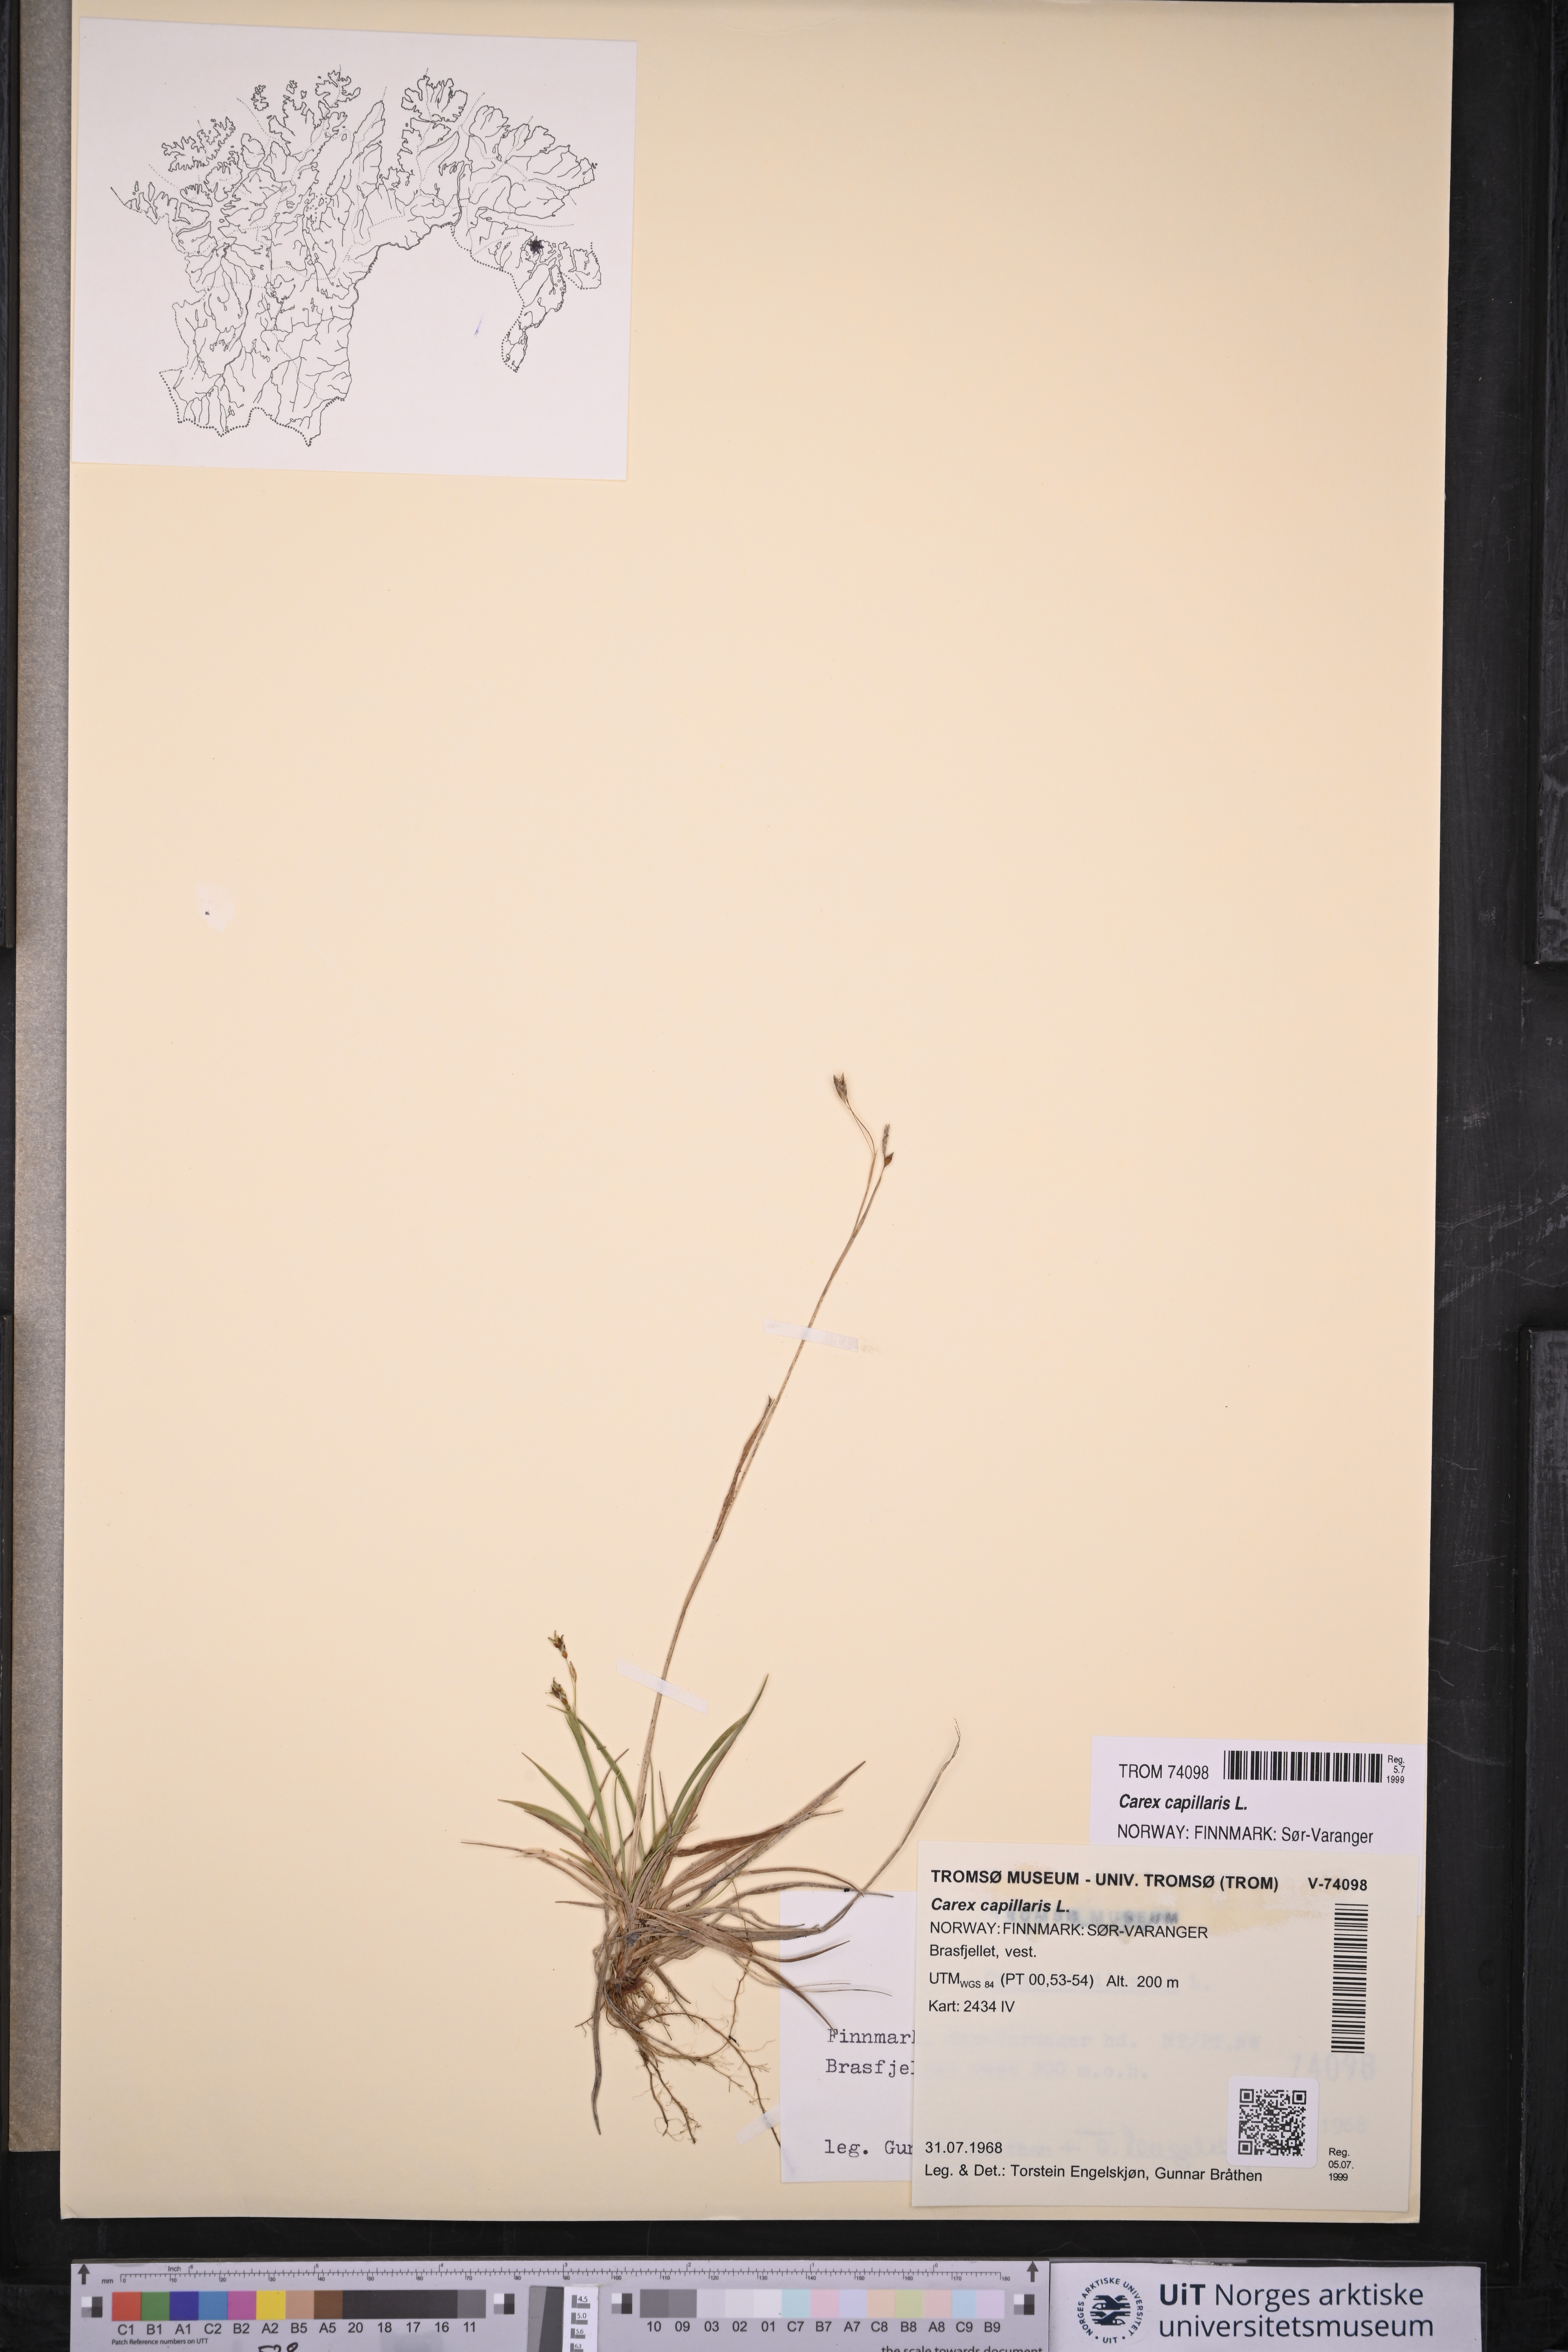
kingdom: Plantae
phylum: Tracheophyta
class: Liliopsida
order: Poales
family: Cyperaceae
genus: Carex
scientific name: Carex capillaris
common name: Hair sedge
